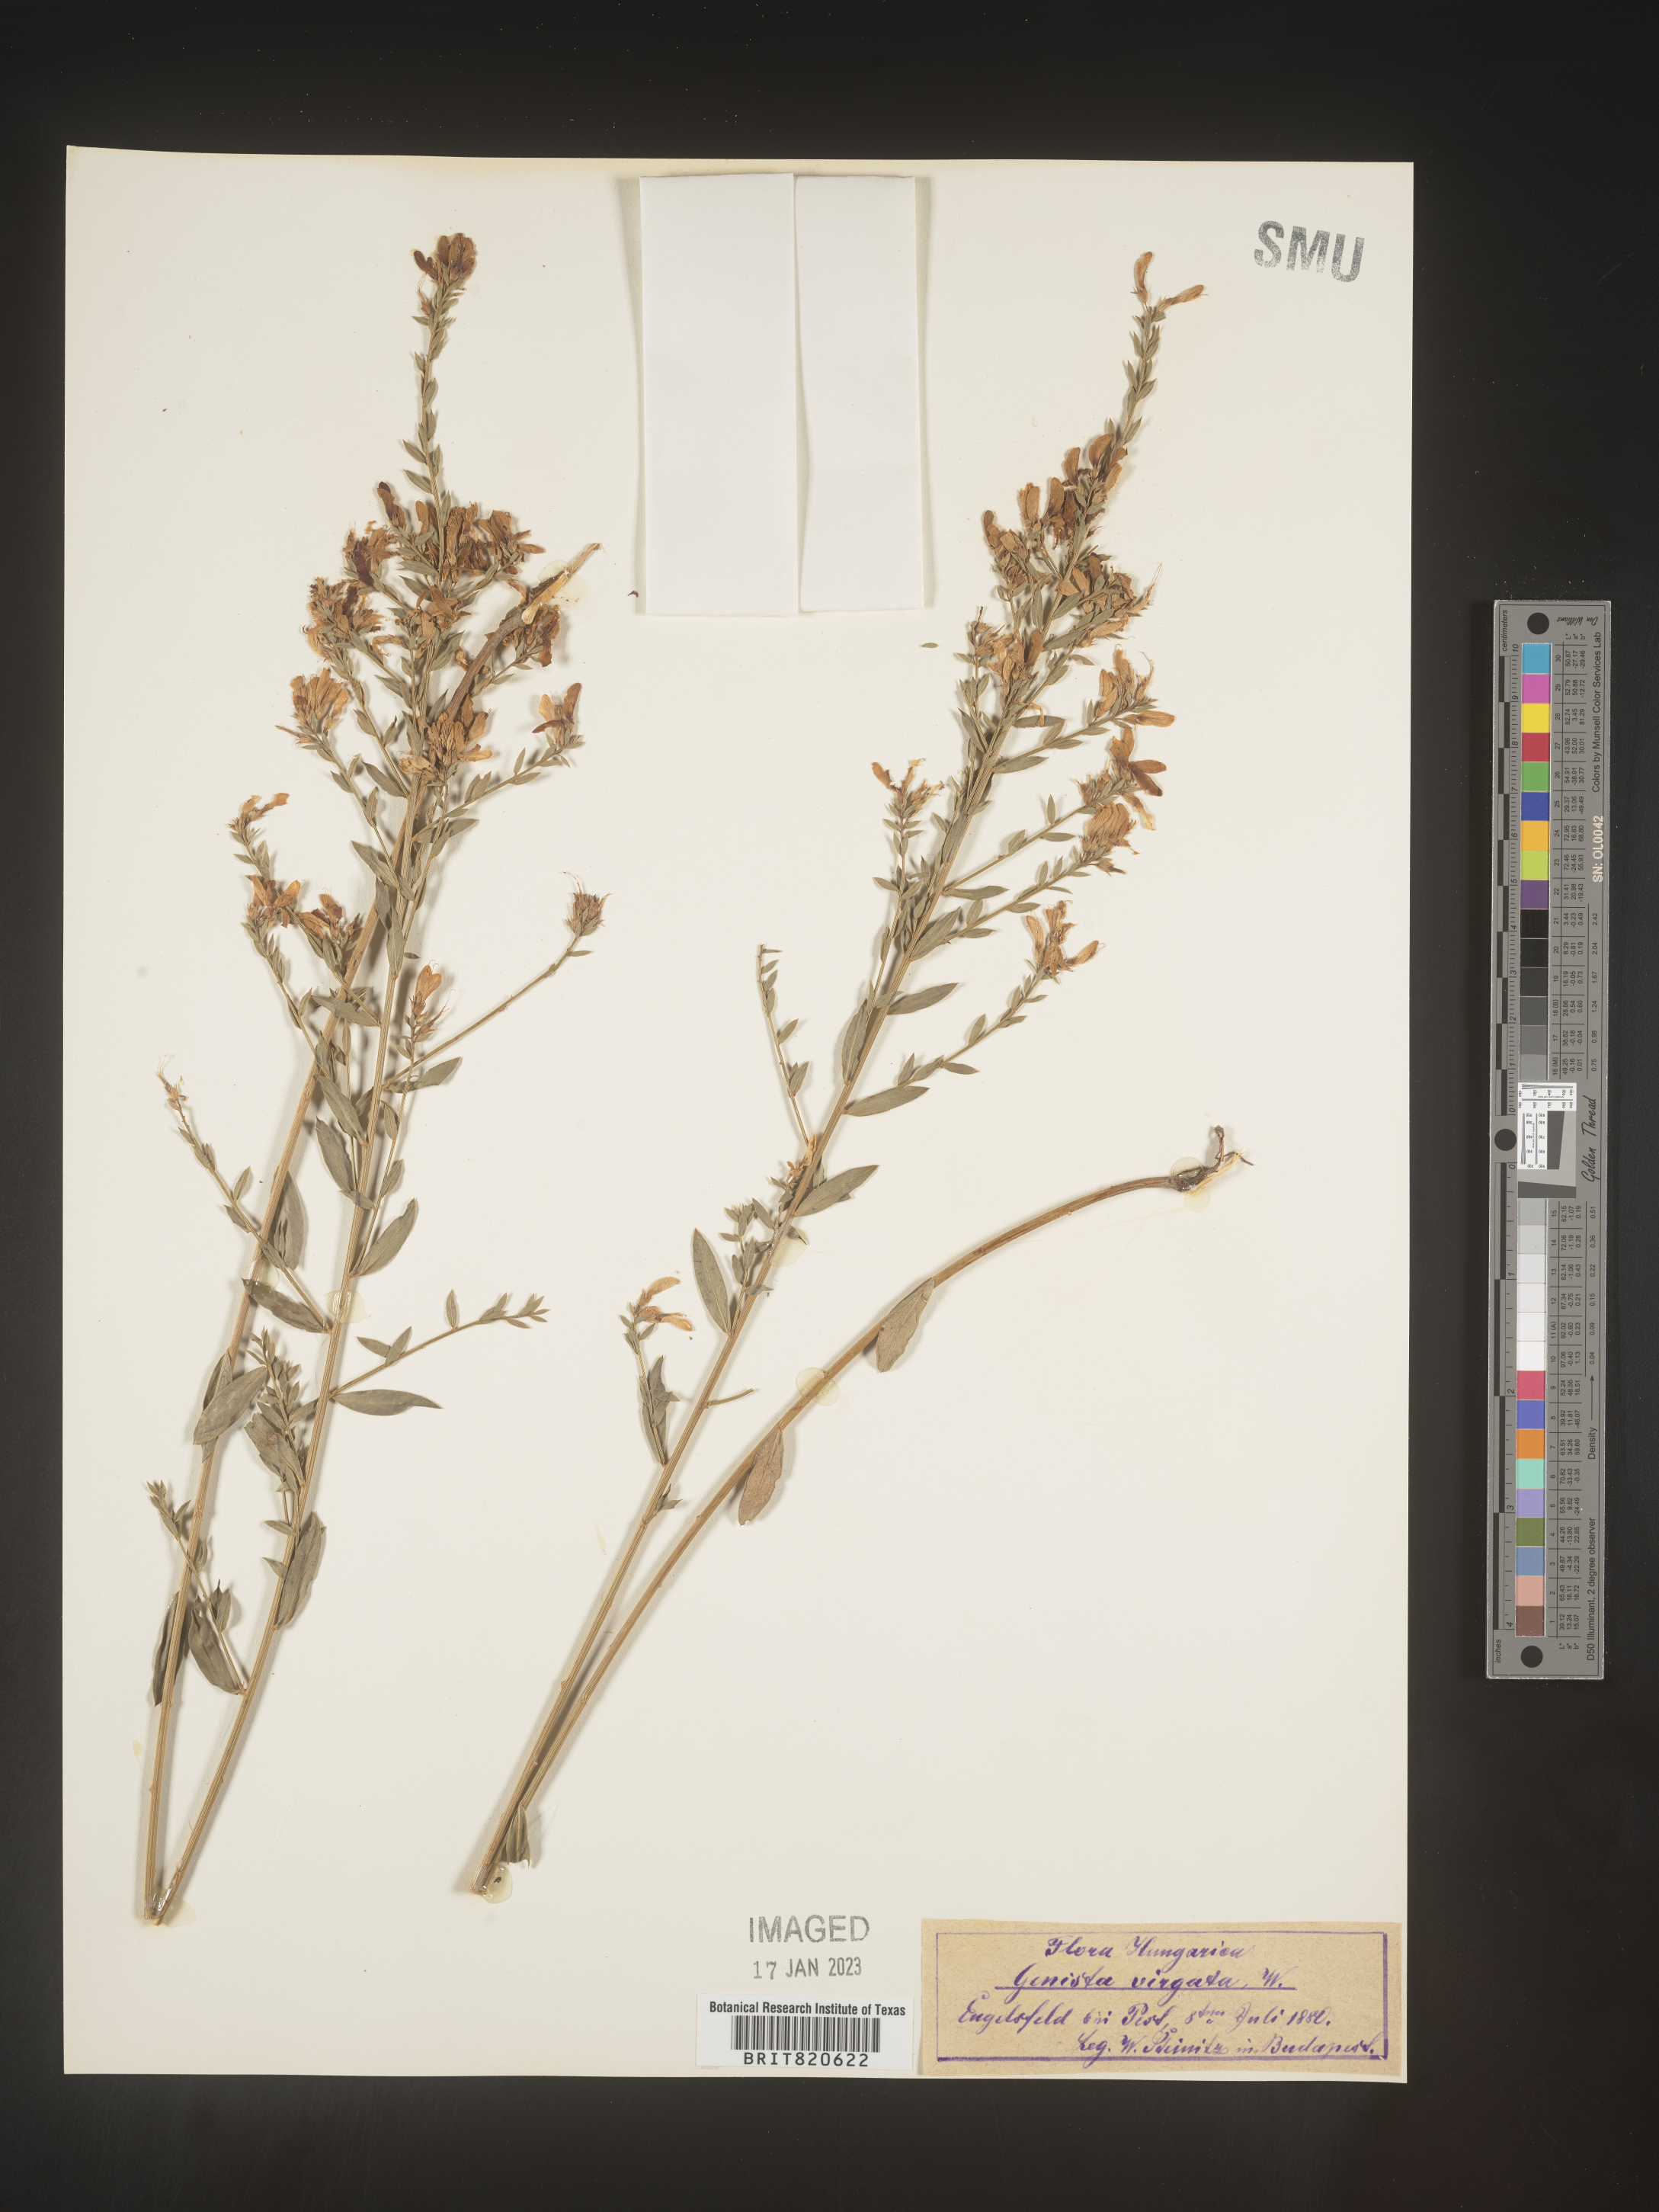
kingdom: Plantae
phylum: Tracheophyta
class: Magnoliopsida
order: Fabales
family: Fabaceae
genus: Genista
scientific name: Genista
